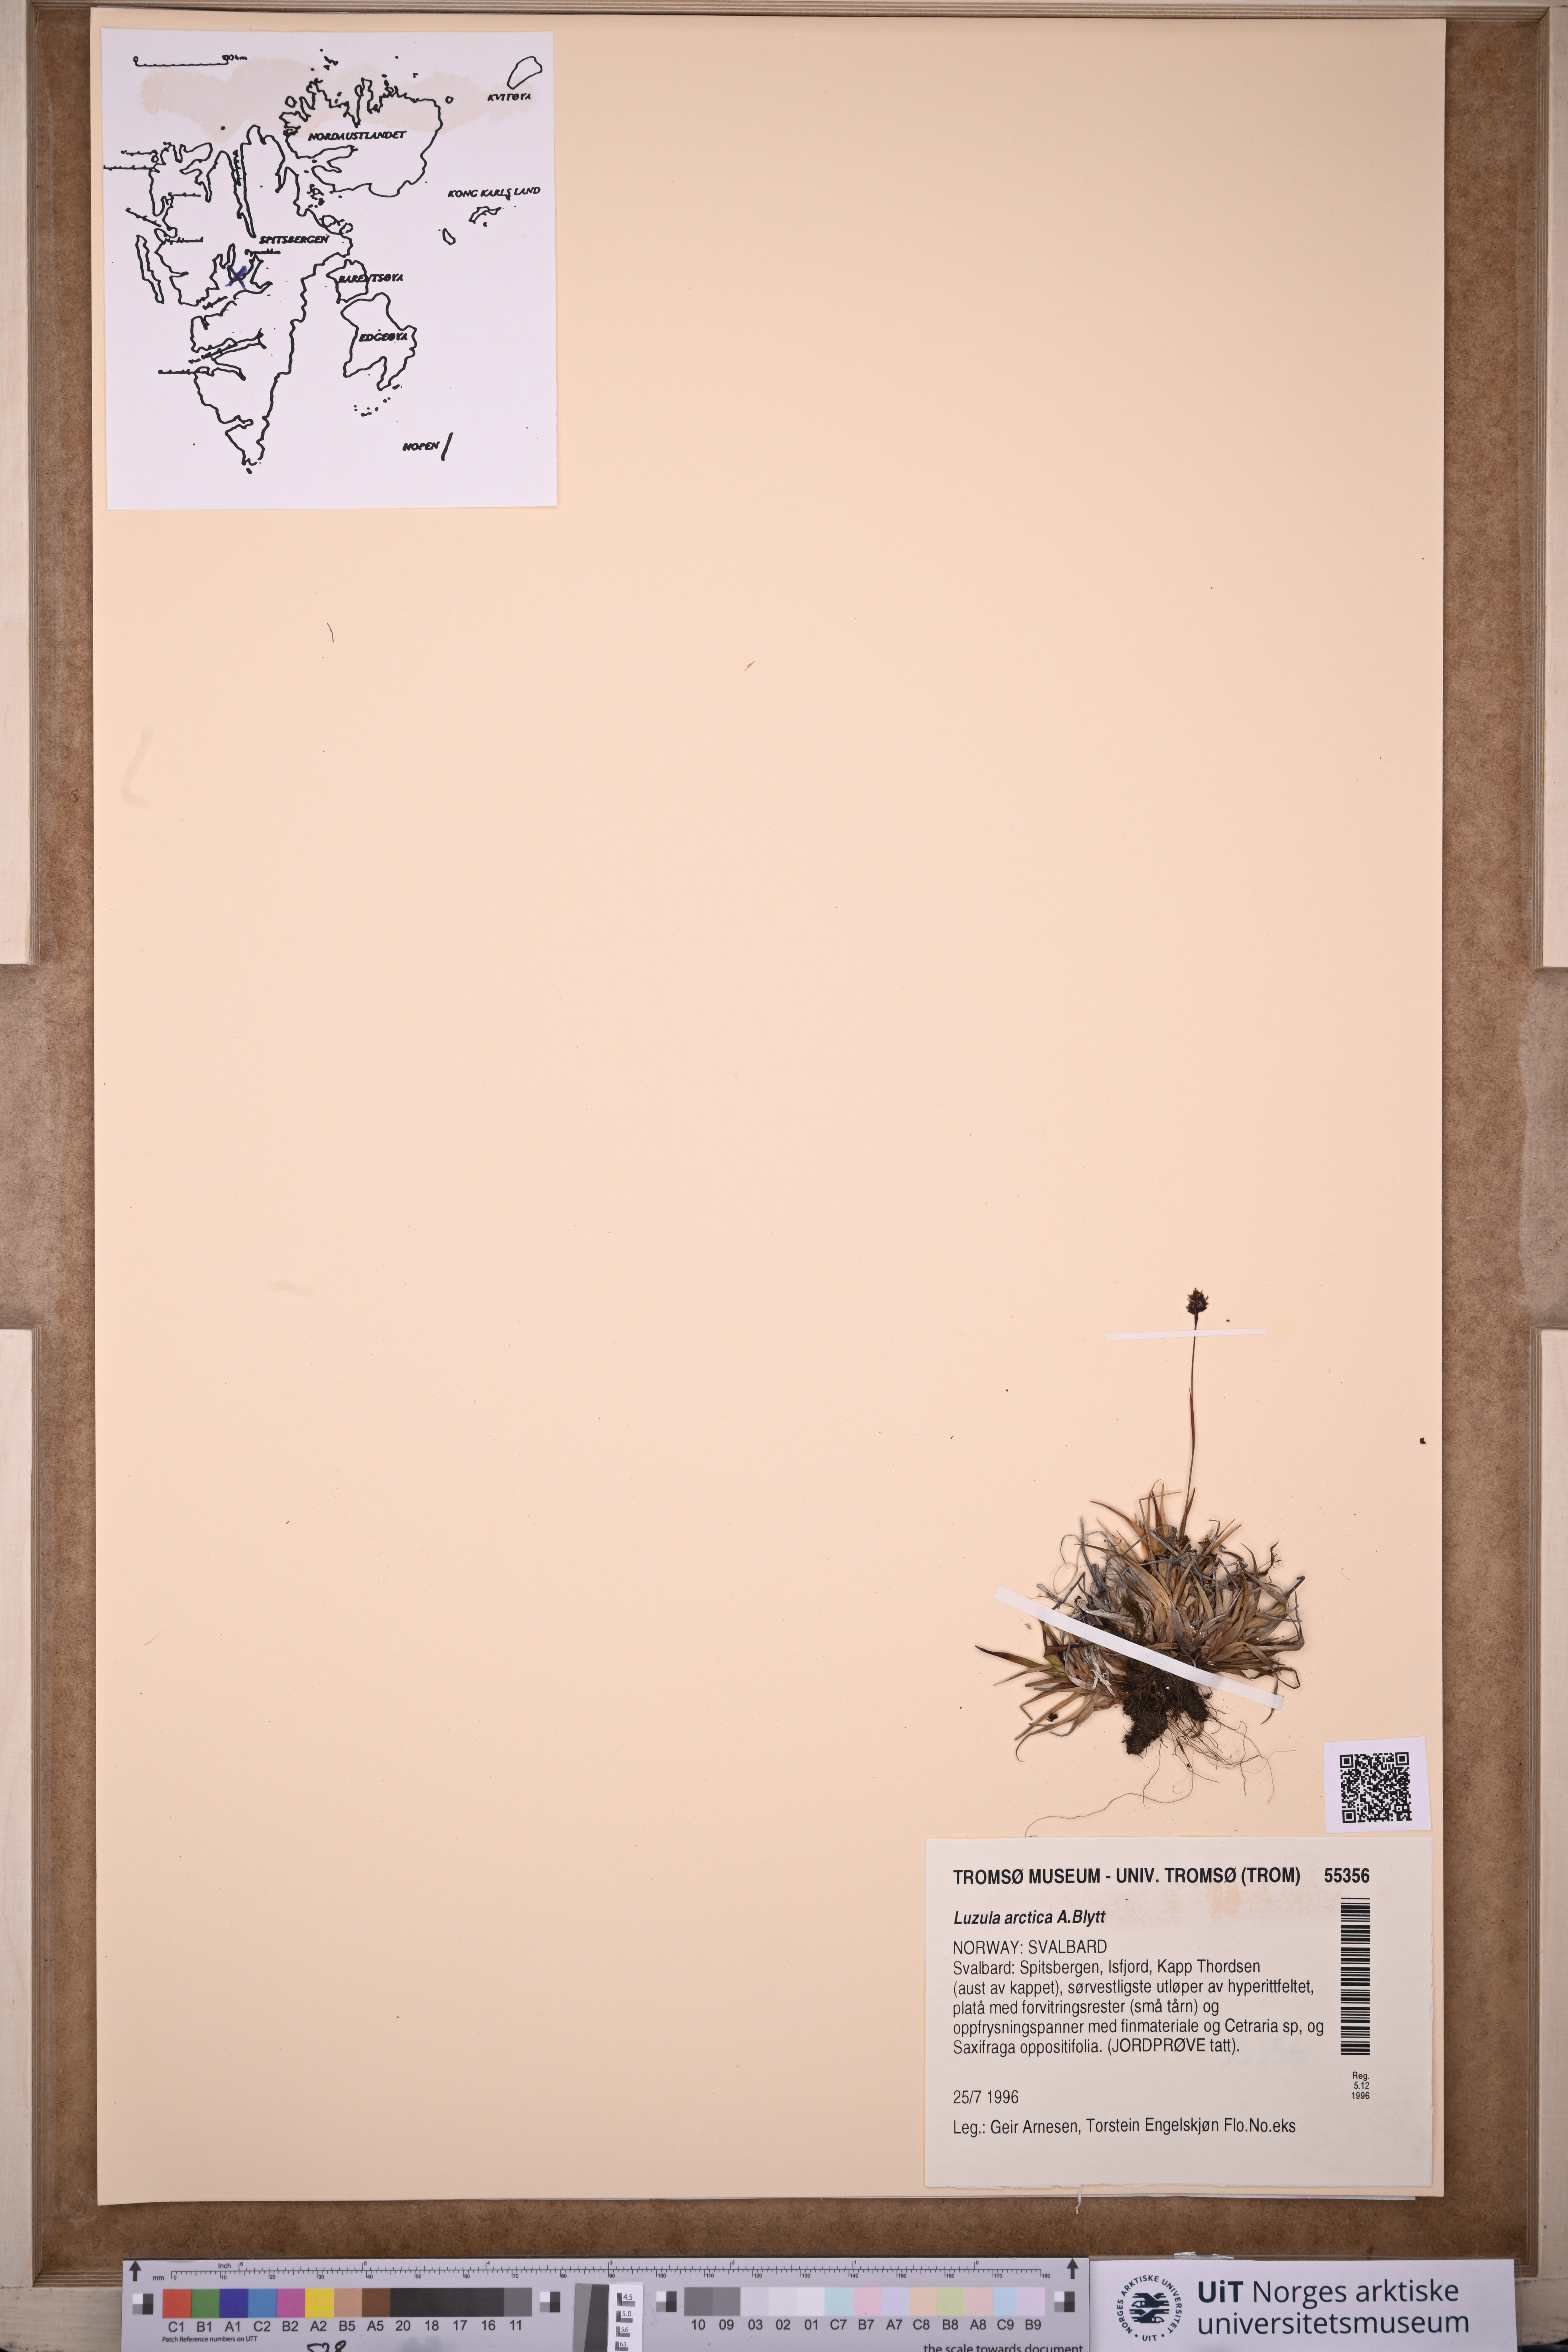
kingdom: Plantae
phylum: Tracheophyta
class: Liliopsida
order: Poales
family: Juncaceae
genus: Luzula
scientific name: Luzula nivalis
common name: Arctic woodrush
